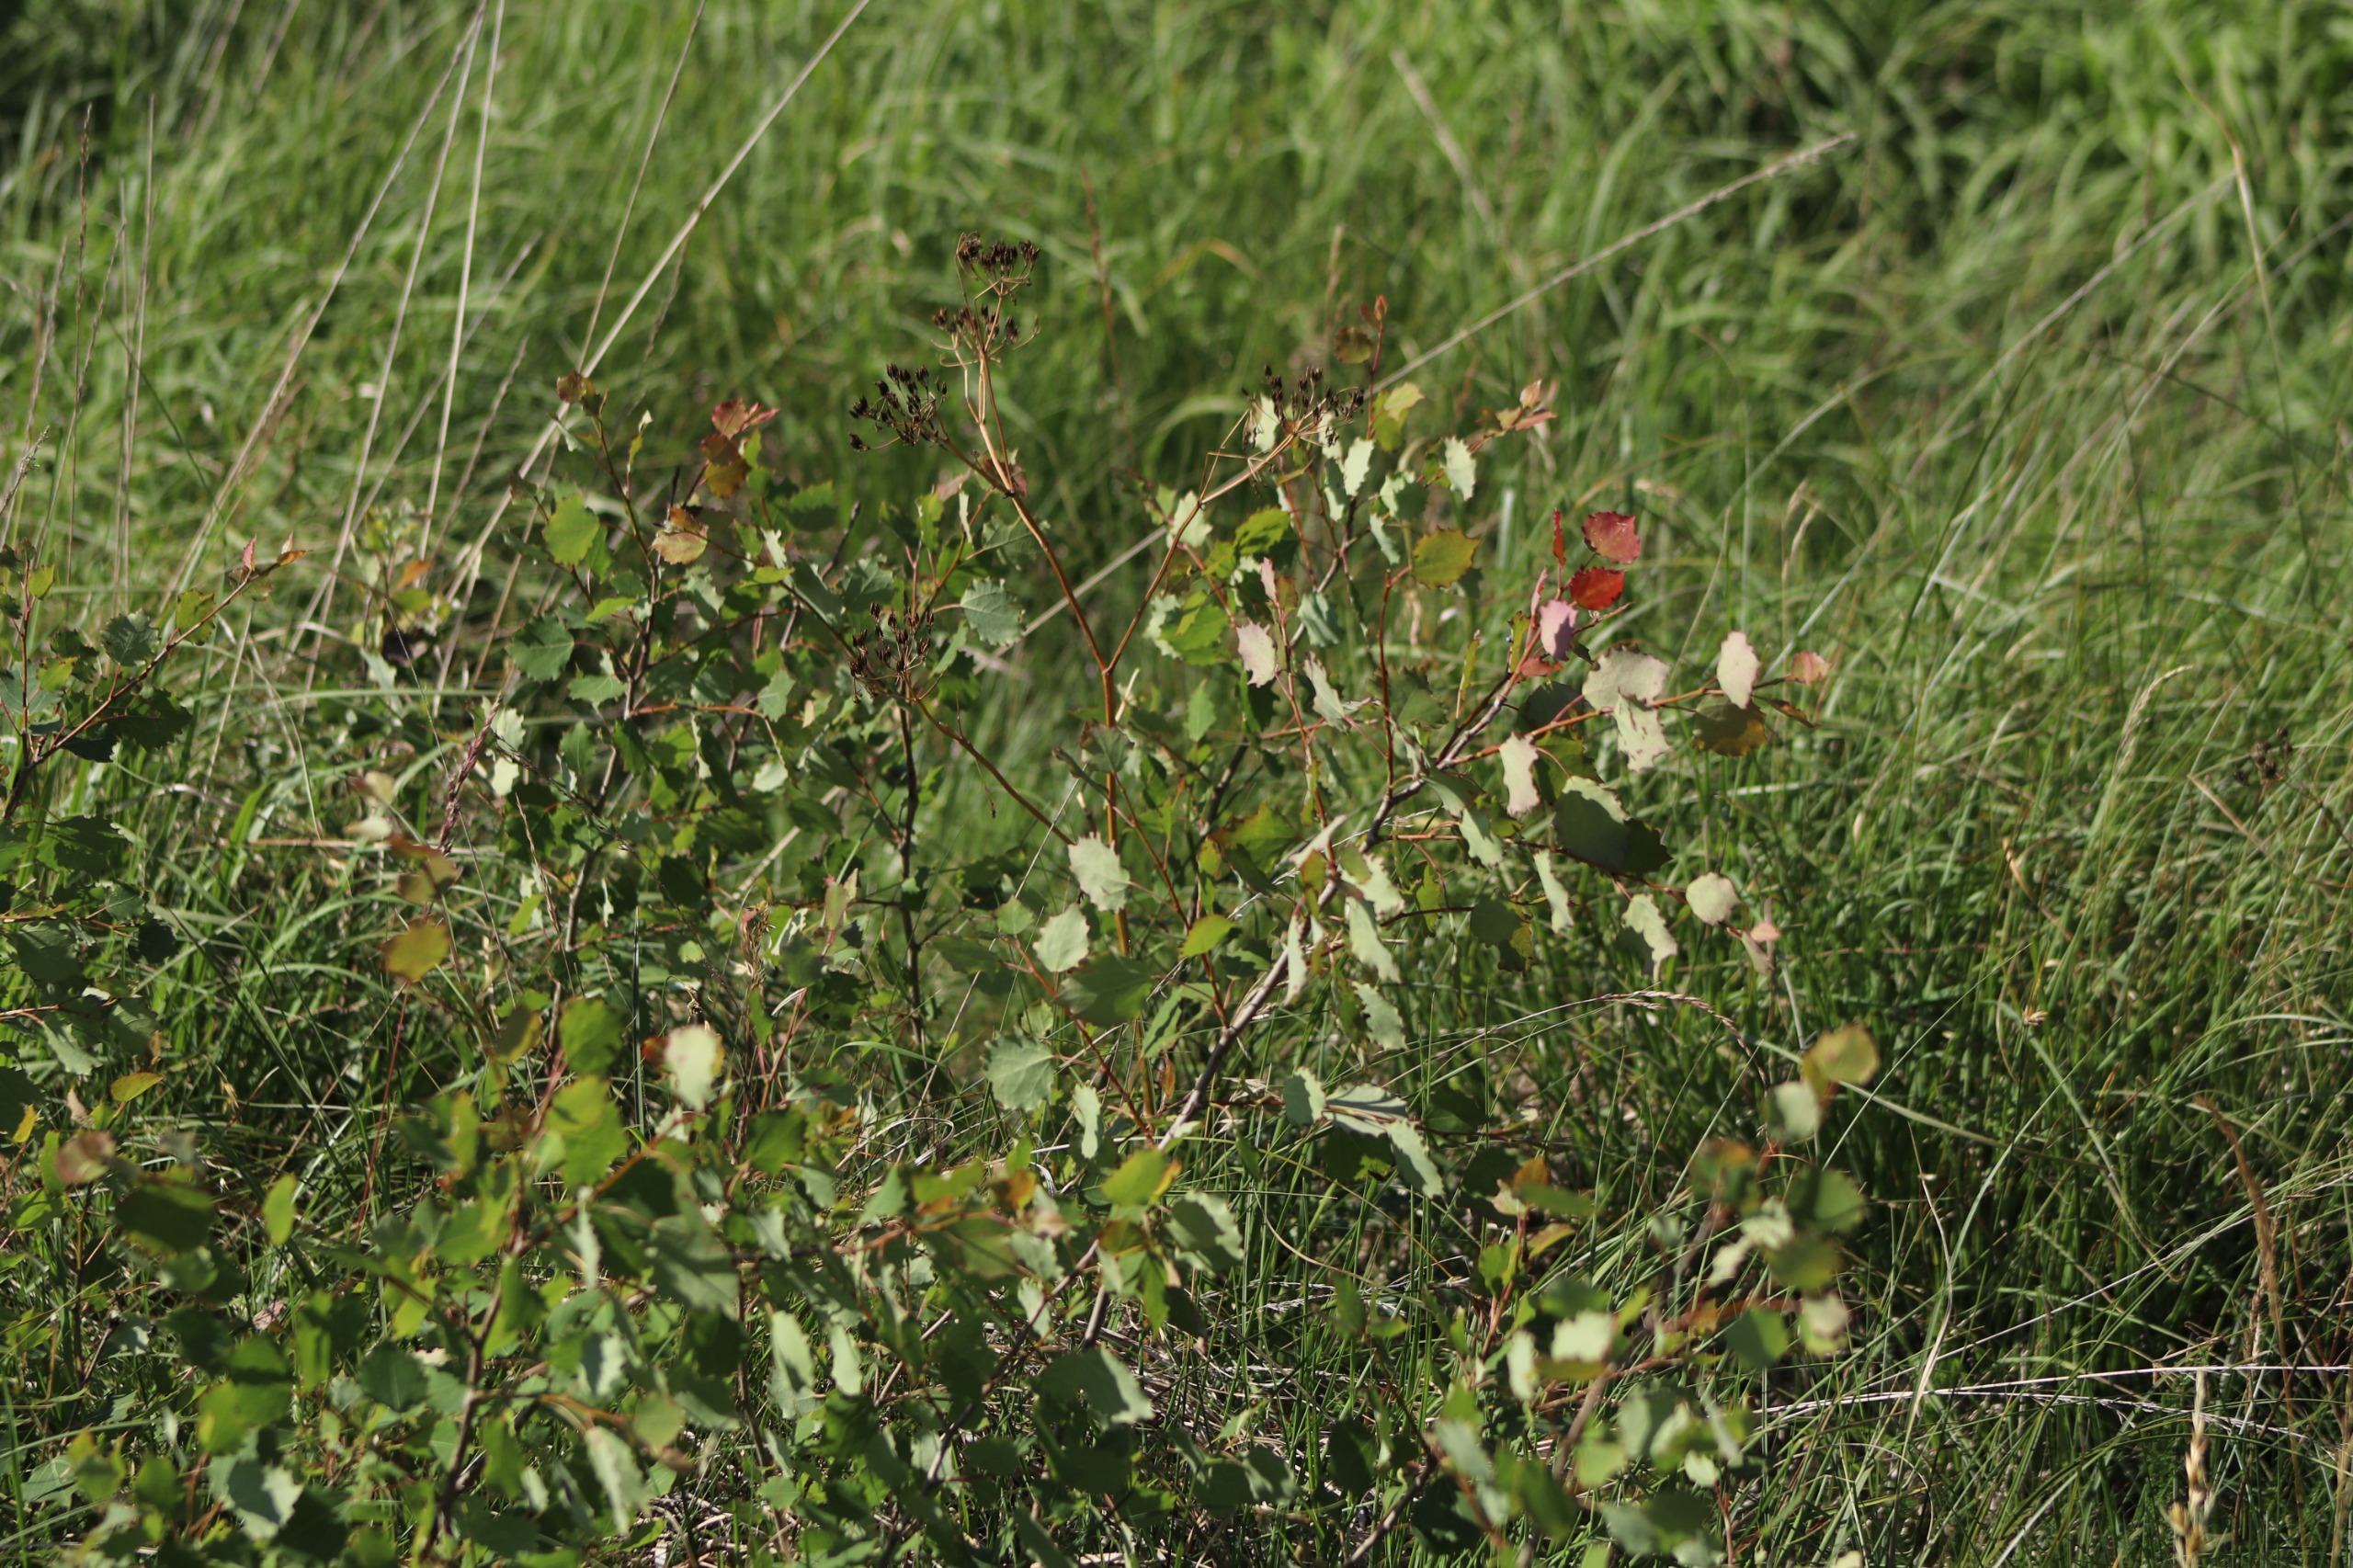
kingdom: Plantae
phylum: Tracheophyta
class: Magnoliopsida
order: Malpighiales
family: Salicaceae
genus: Populus
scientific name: Populus tremula
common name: Bævreasp
